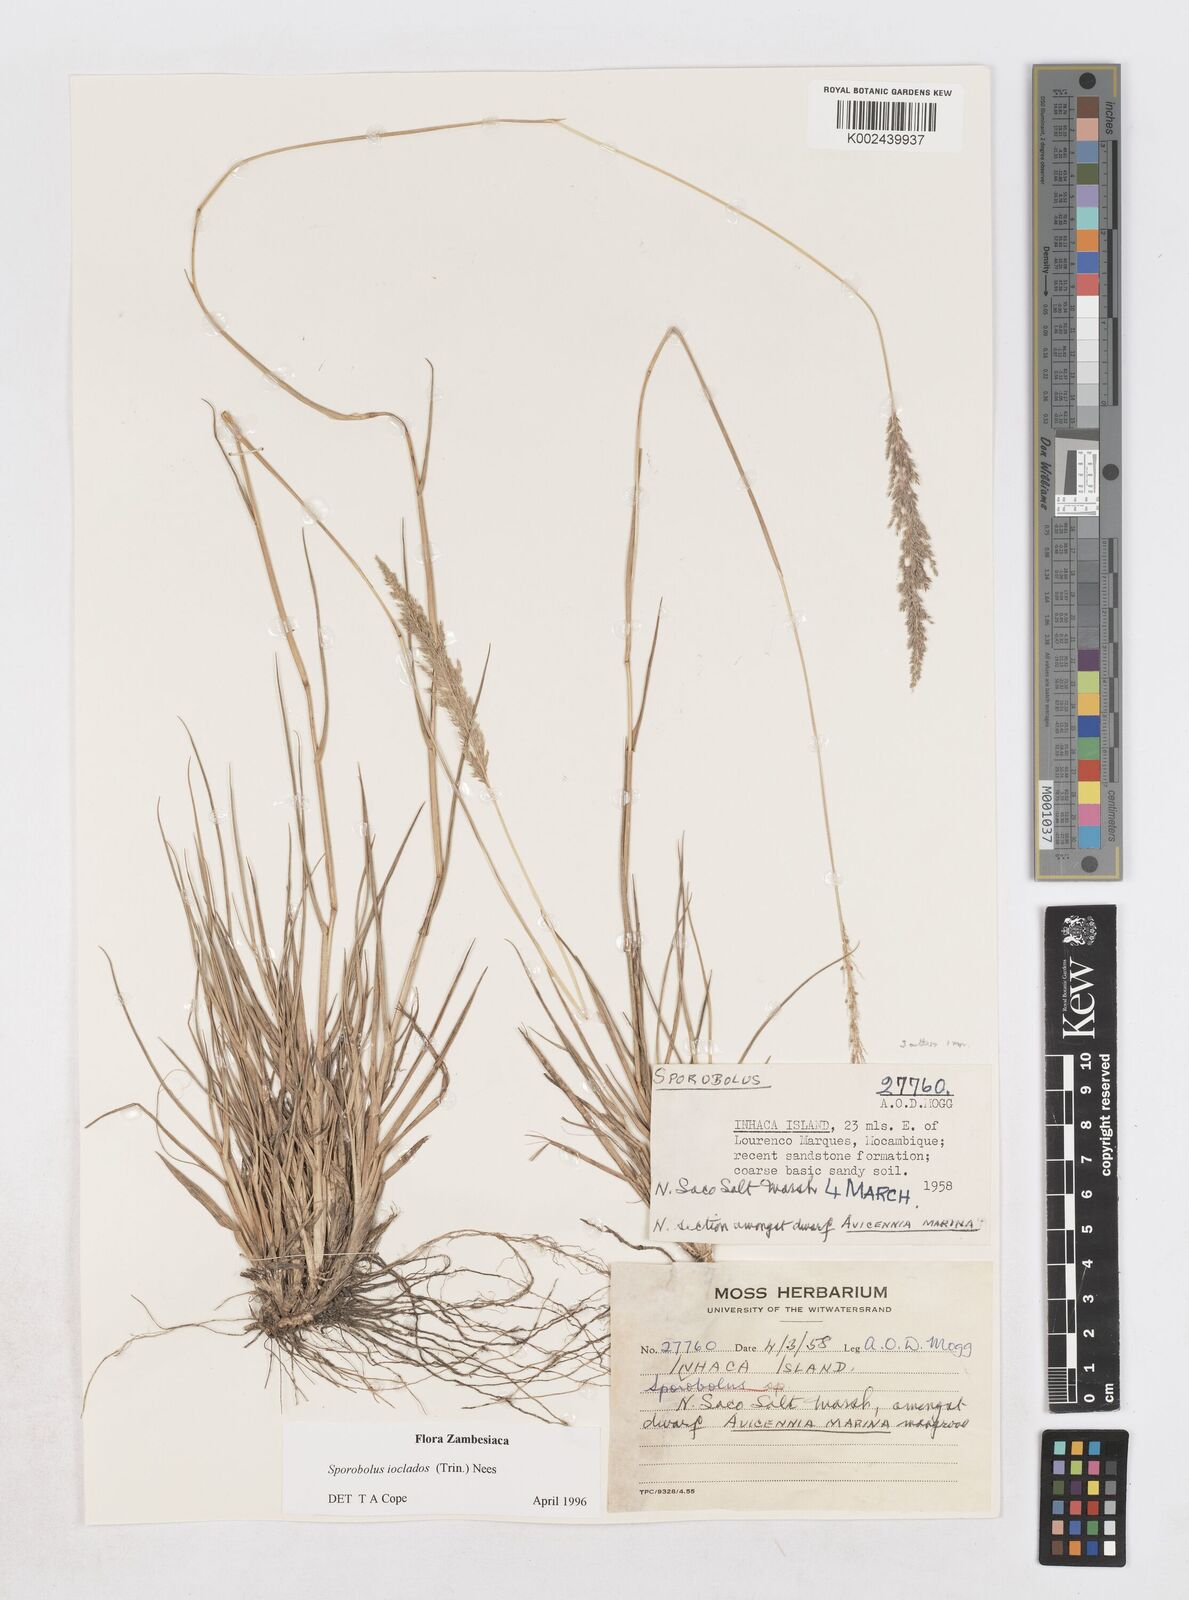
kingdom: Plantae
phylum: Tracheophyta
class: Liliopsida
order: Poales
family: Poaceae
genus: Sporobolus
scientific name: Sporobolus ioclados
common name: Pan dropseed
